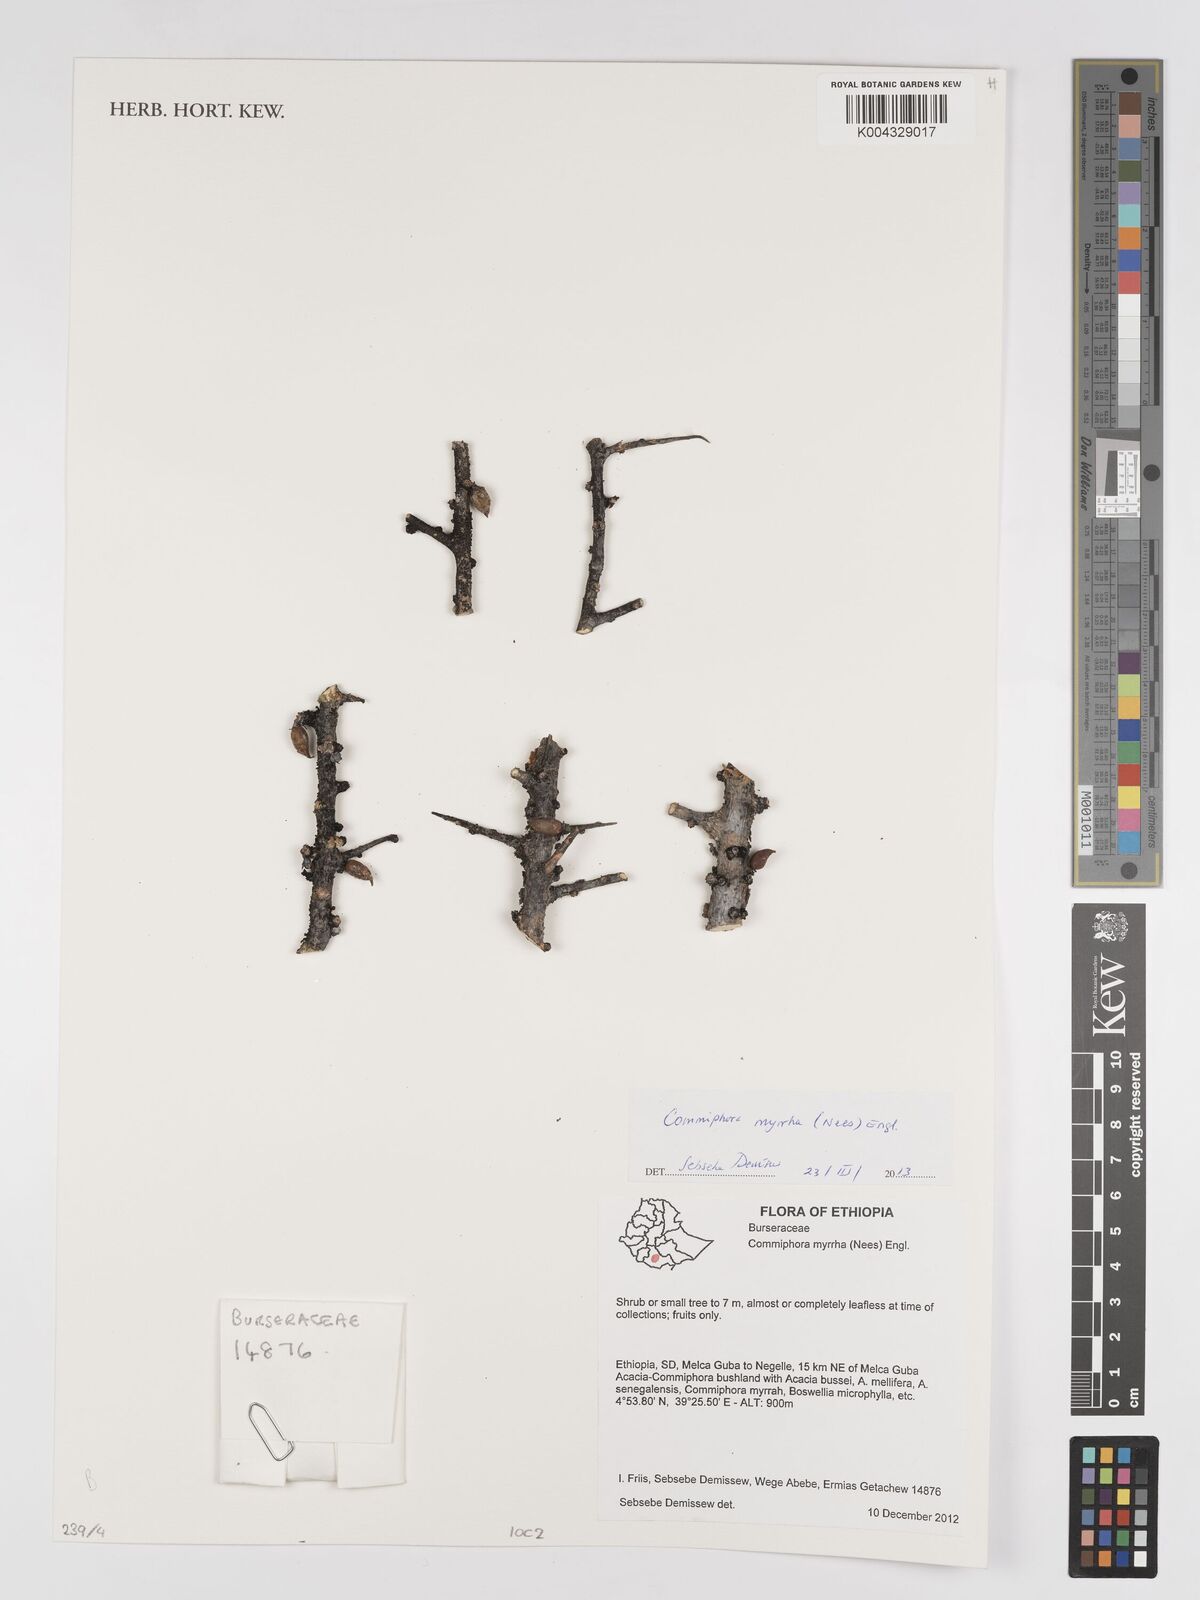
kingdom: Plantae
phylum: Tracheophyta
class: Magnoliopsida
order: Sapindales
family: Burseraceae
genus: Commiphora
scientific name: Commiphora myrrha
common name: African myrrh
